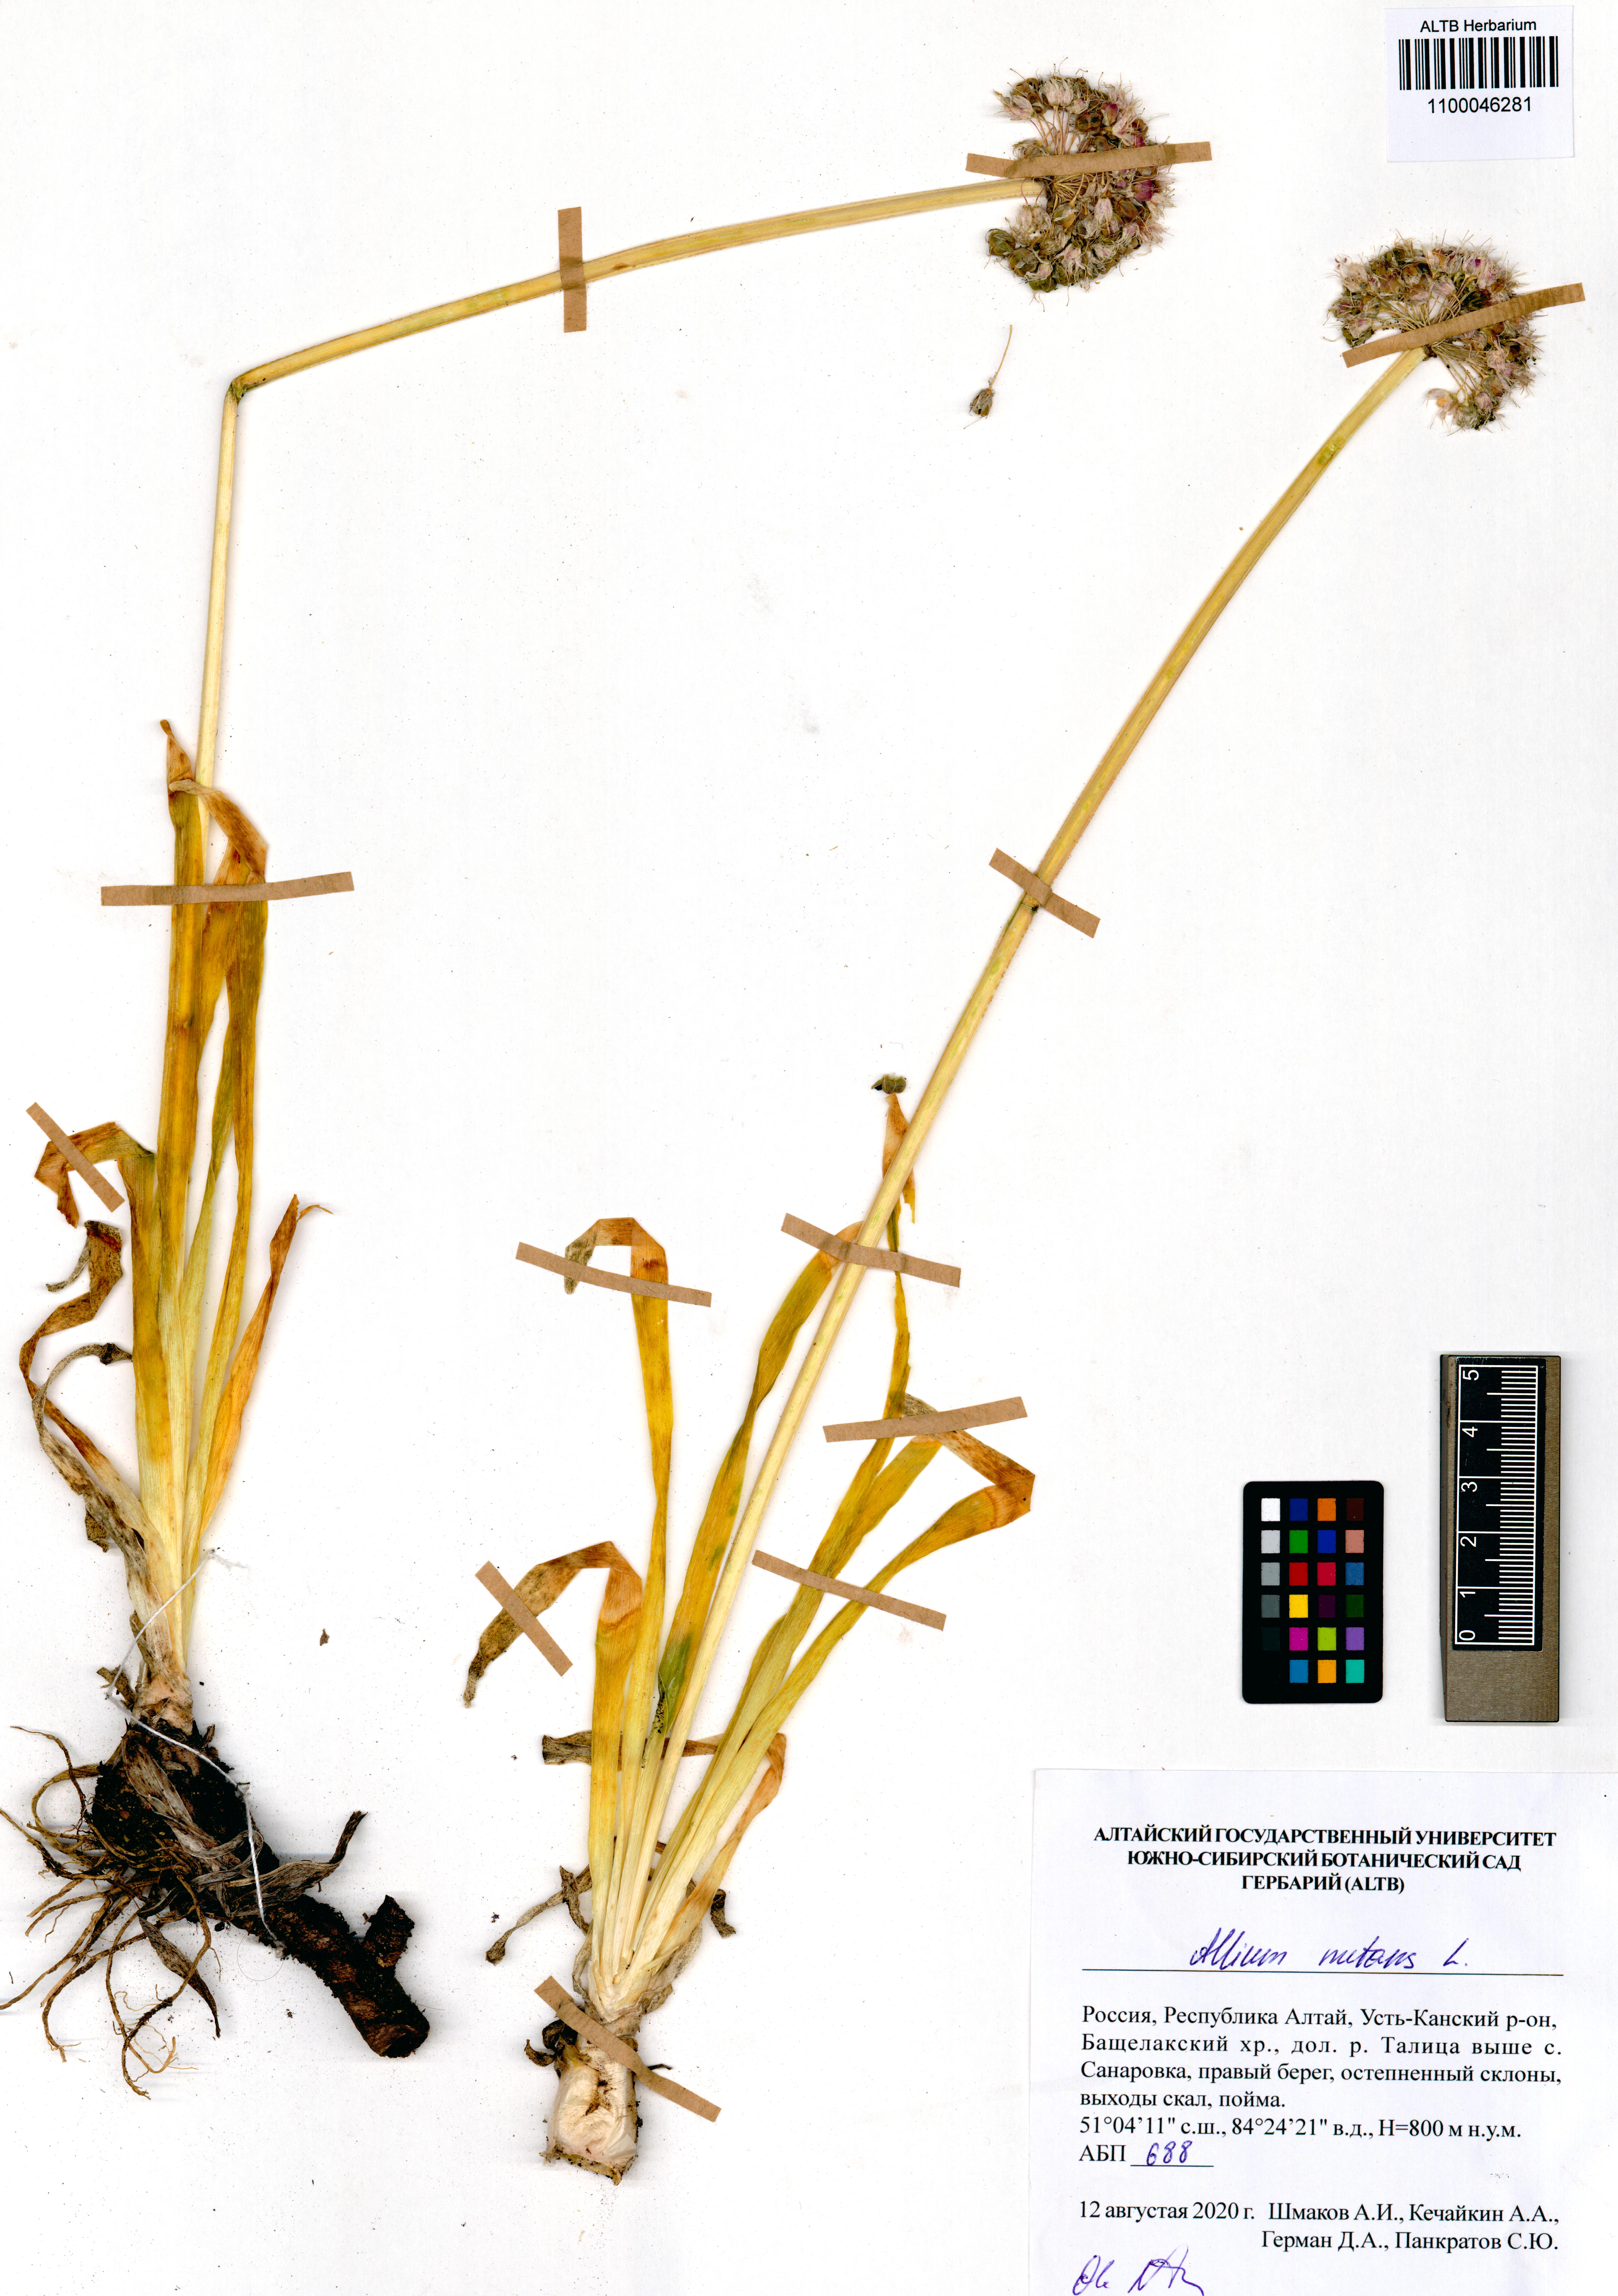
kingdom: Plantae
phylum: Tracheophyta
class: Liliopsida
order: Asparagales
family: Amaryllidaceae
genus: Allium
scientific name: Allium nutans
